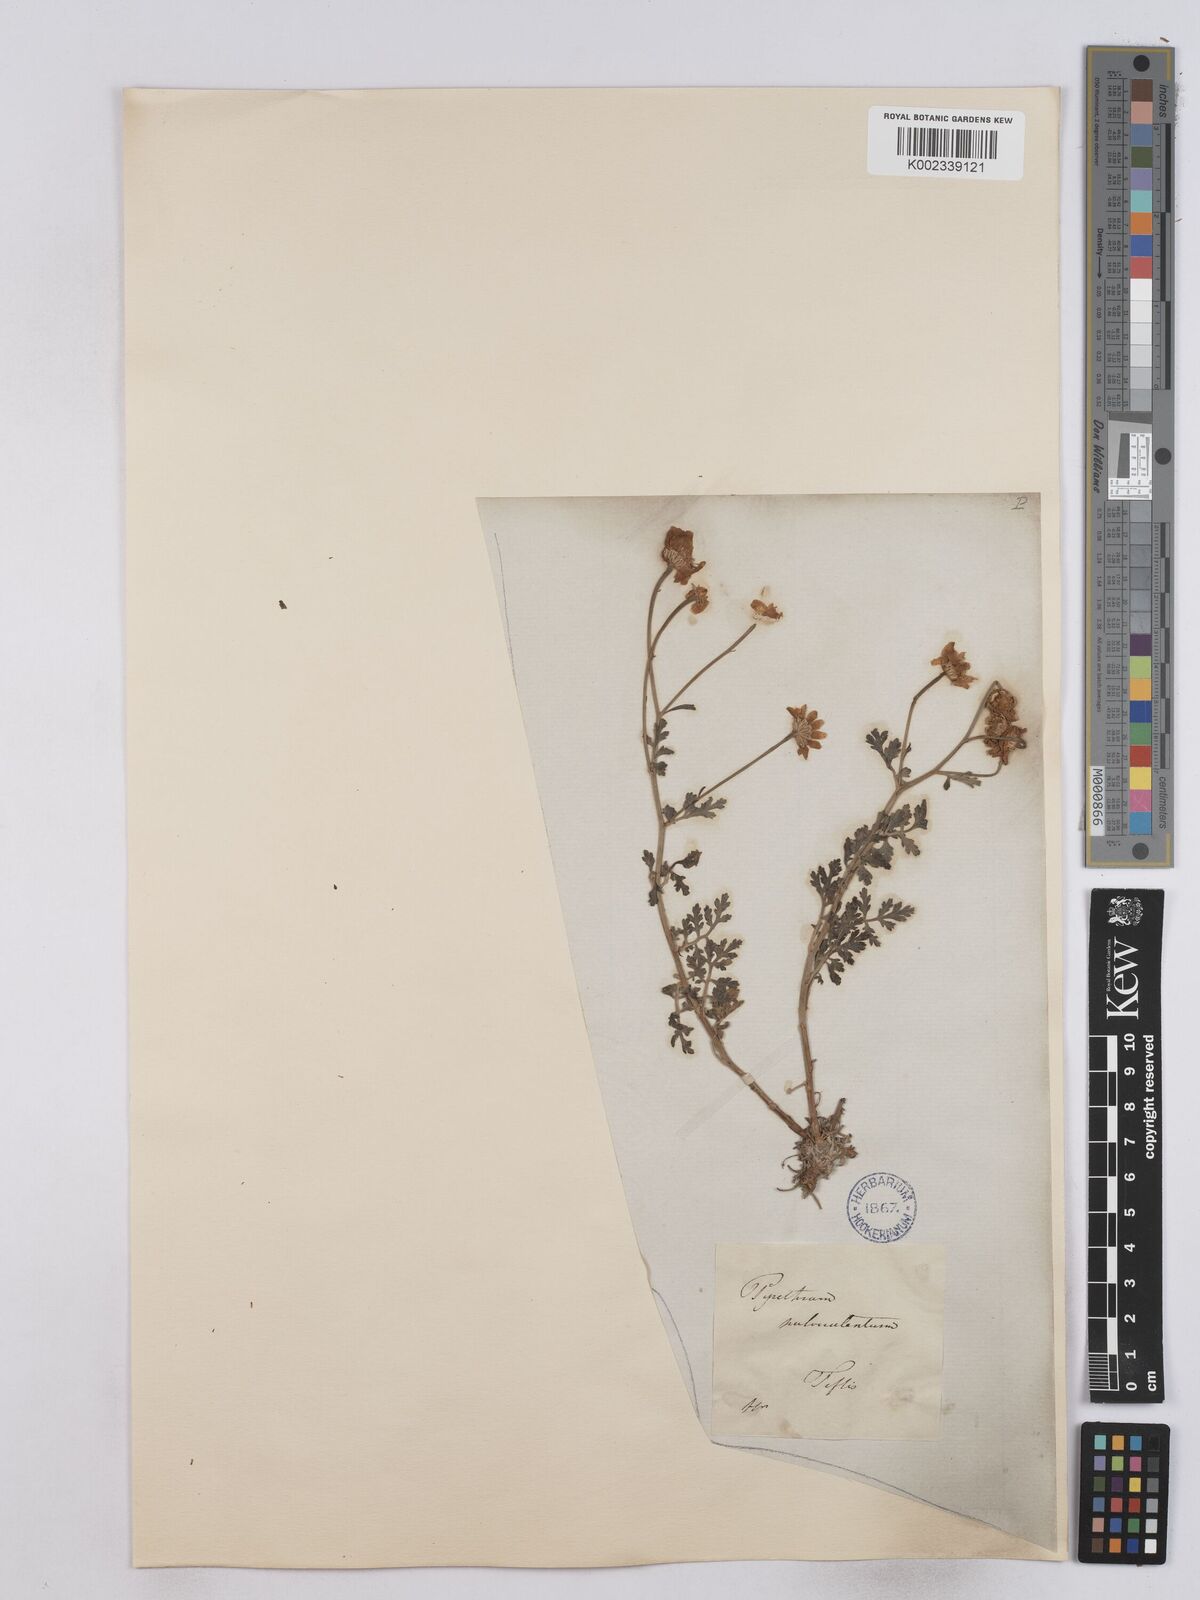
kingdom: Plantae
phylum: Tracheophyta
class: Magnoliopsida
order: Asterales
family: Asteraceae
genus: Tanacetum
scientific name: Tanacetum partheniifolium
